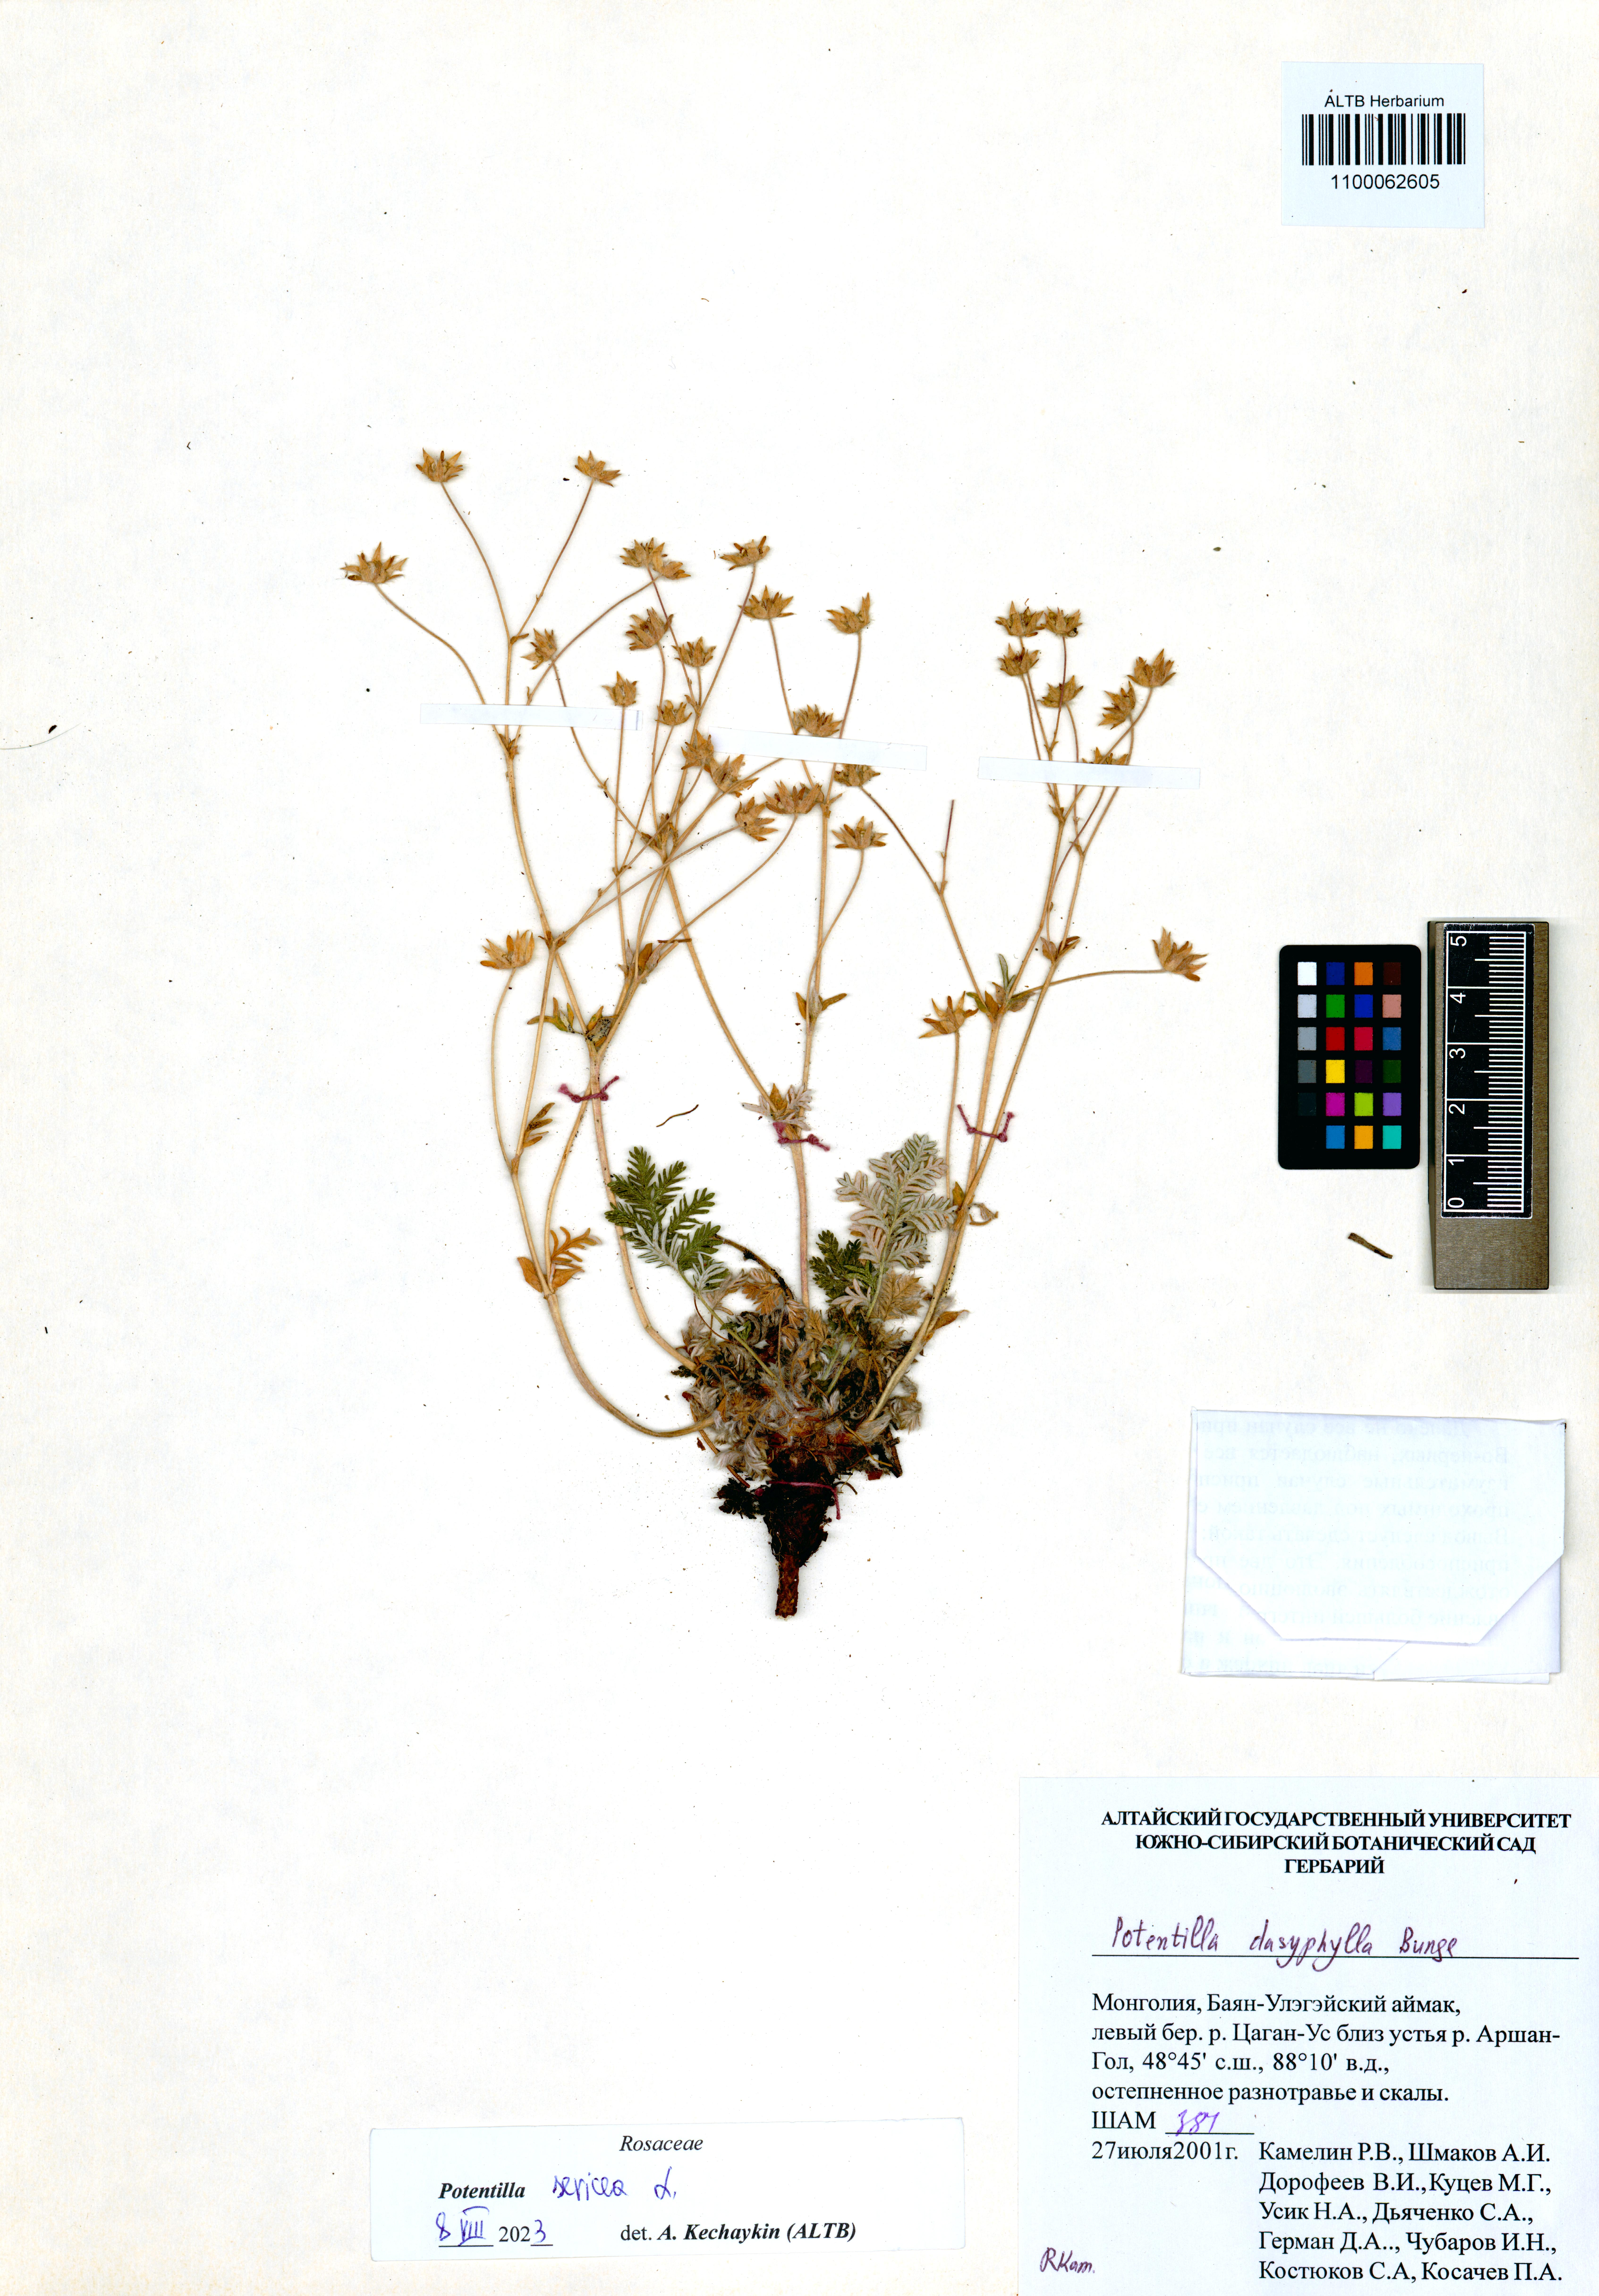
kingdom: Plantae
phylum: Tracheophyta
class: Magnoliopsida
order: Rosales
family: Rosaceae
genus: Potentilla
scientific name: Potentilla sericea
